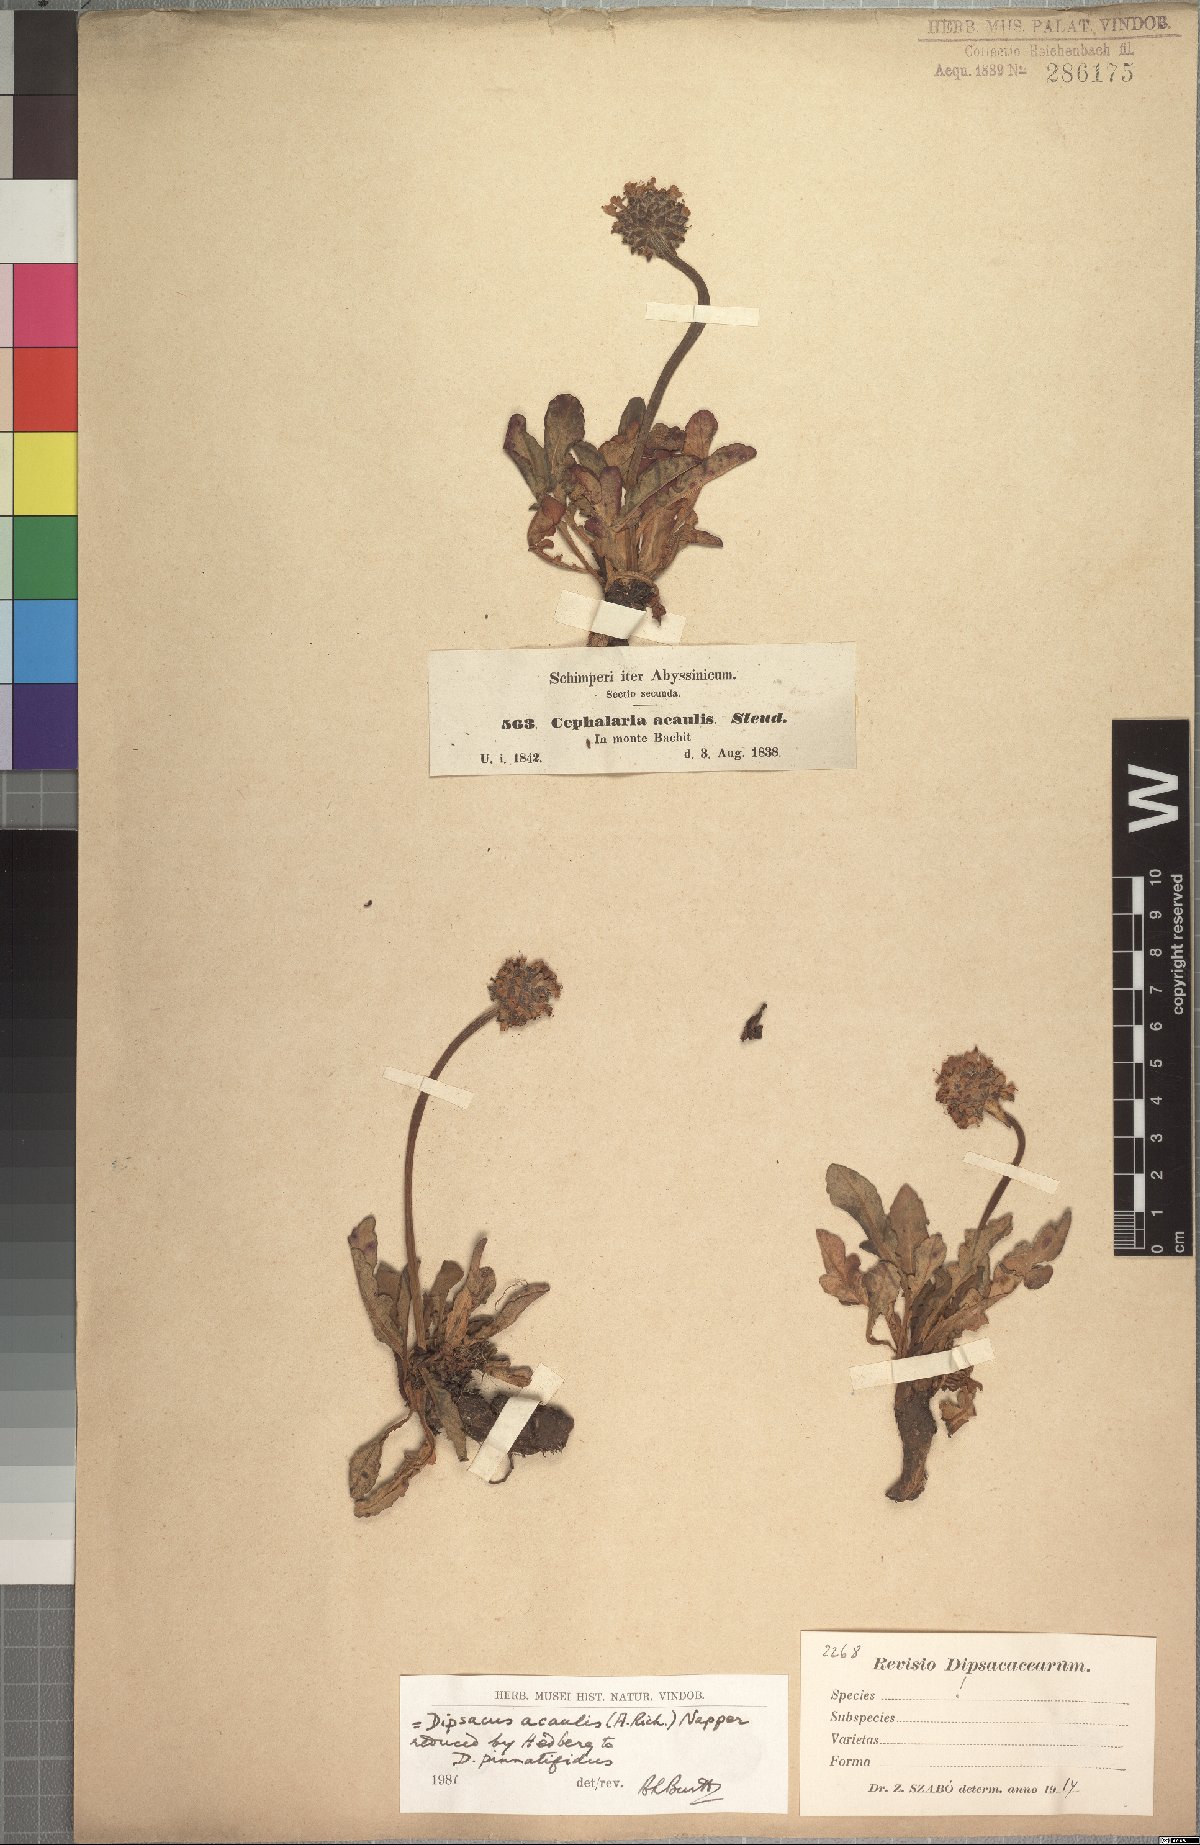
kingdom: Plantae
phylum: Tracheophyta
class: Magnoliopsida
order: Dipsacales
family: Caprifoliaceae
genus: Dipsacus
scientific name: Dipsacus pinnatifidus
